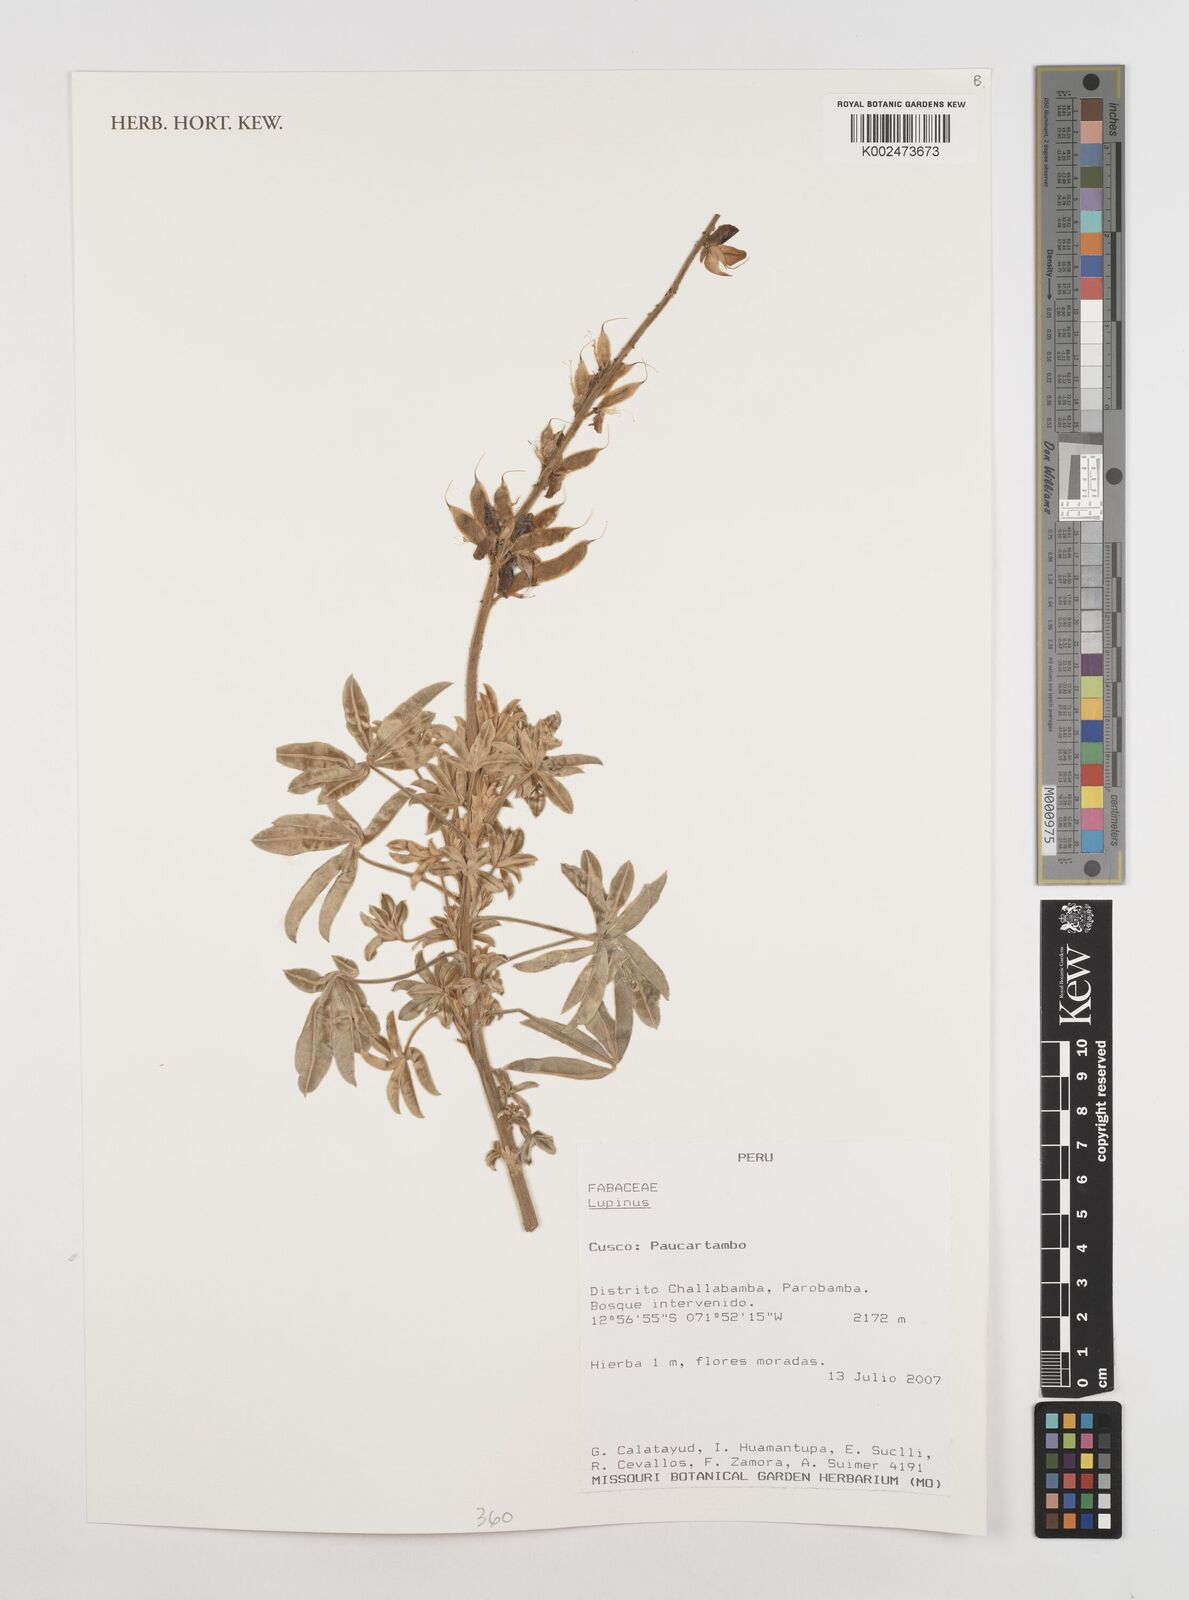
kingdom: Plantae
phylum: Tracheophyta
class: Magnoliopsida
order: Fabales
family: Fabaceae
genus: Lupinus
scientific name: Lupinus
